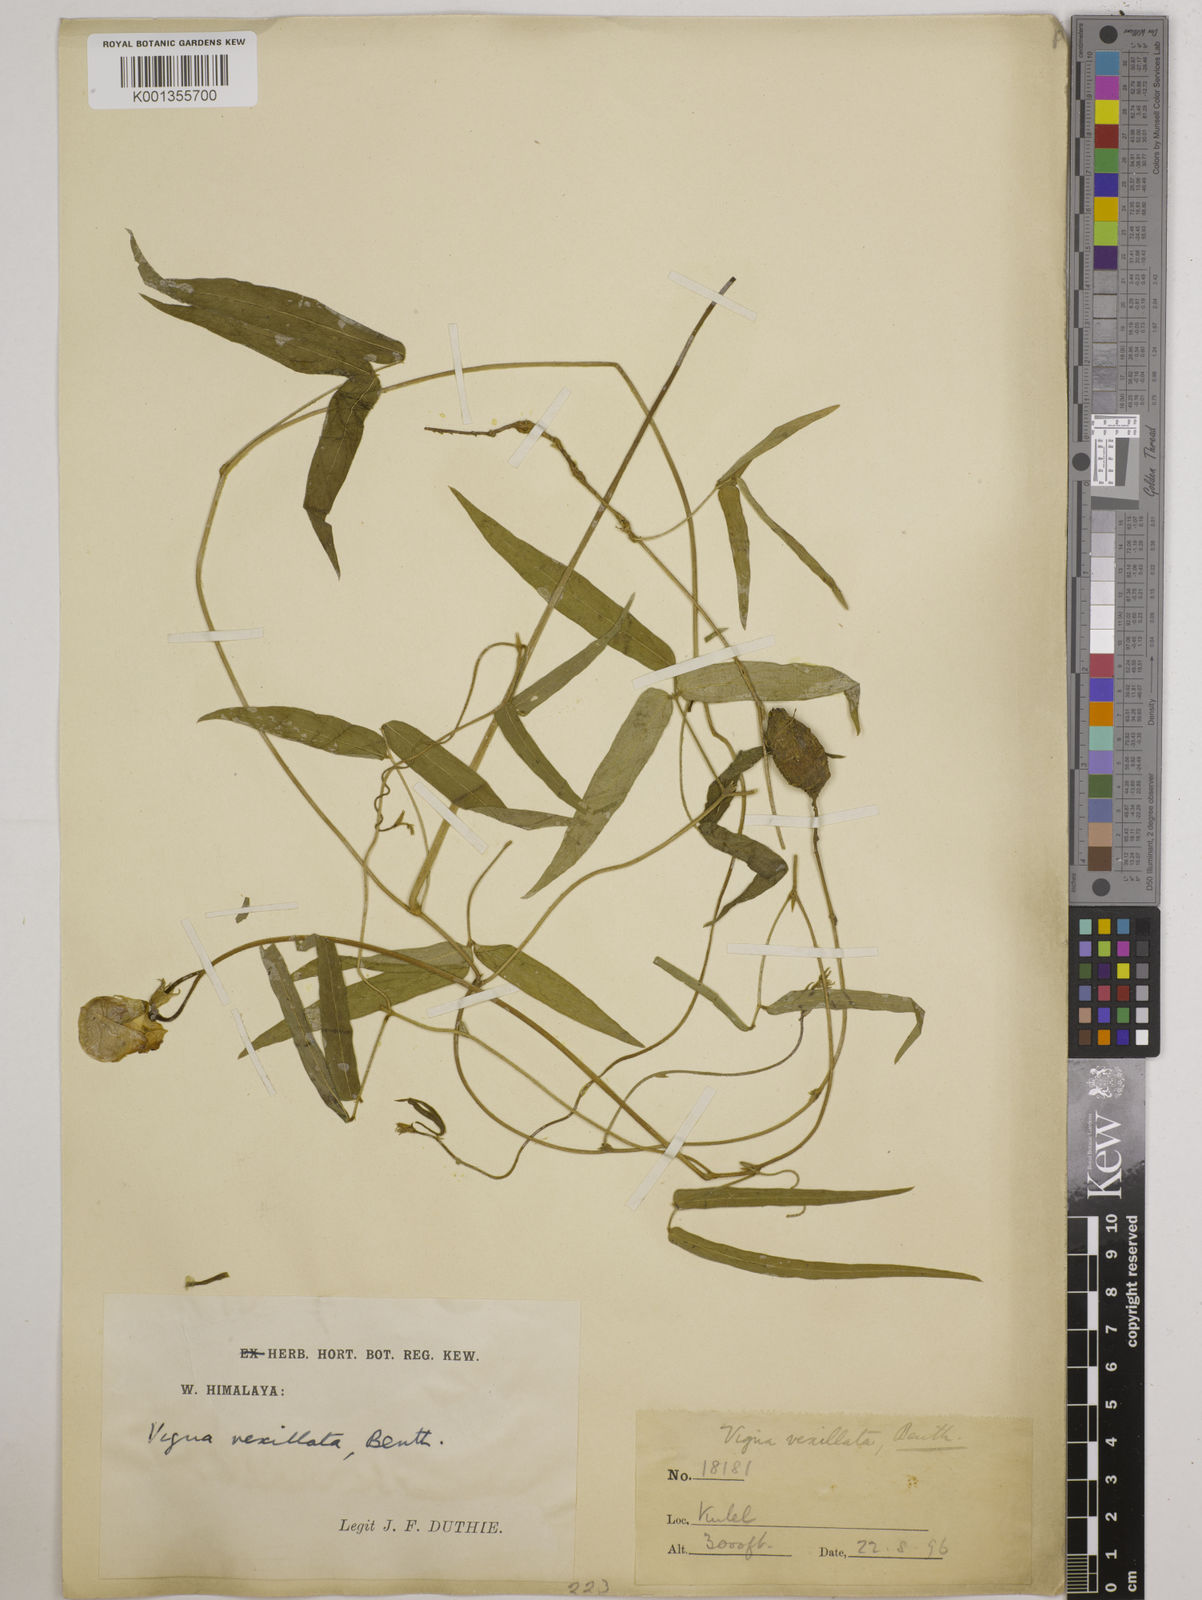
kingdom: Plantae
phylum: Tracheophyta
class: Magnoliopsida
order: Fabales
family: Fabaceae
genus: Vigna
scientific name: Vigna vexillata
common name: Zombi pea
